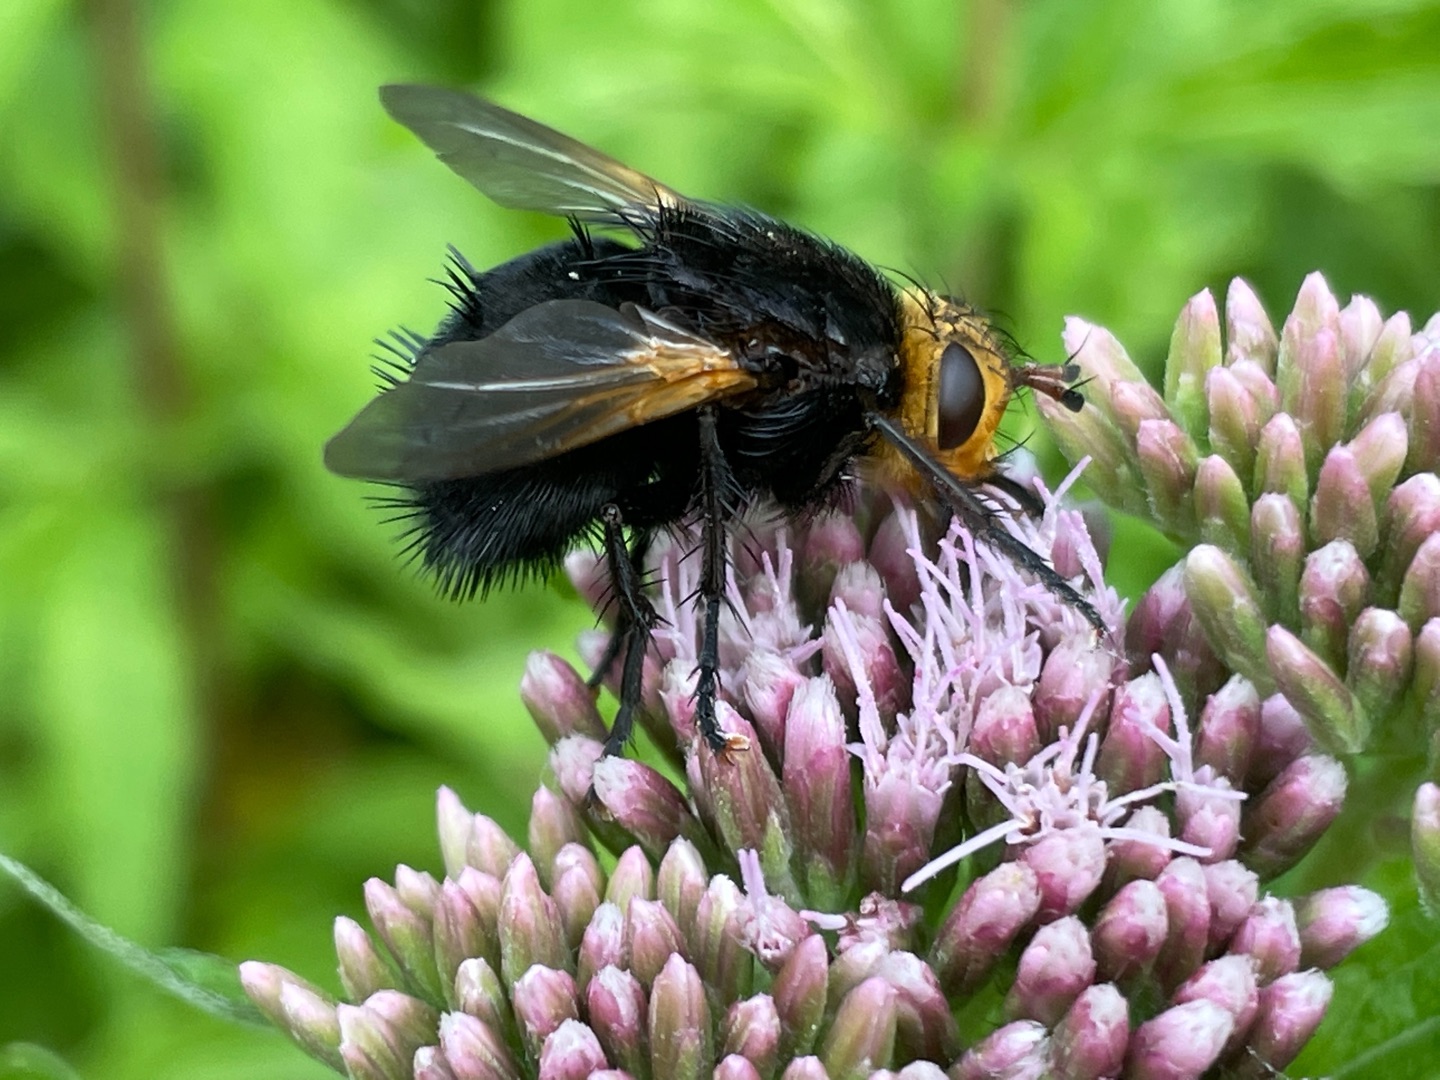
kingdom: Animalia
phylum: Arthropoda
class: Insecta
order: Diptera
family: Tachinidae
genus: Tachina
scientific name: Tachina grossa
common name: Kæmpefluen Harald
